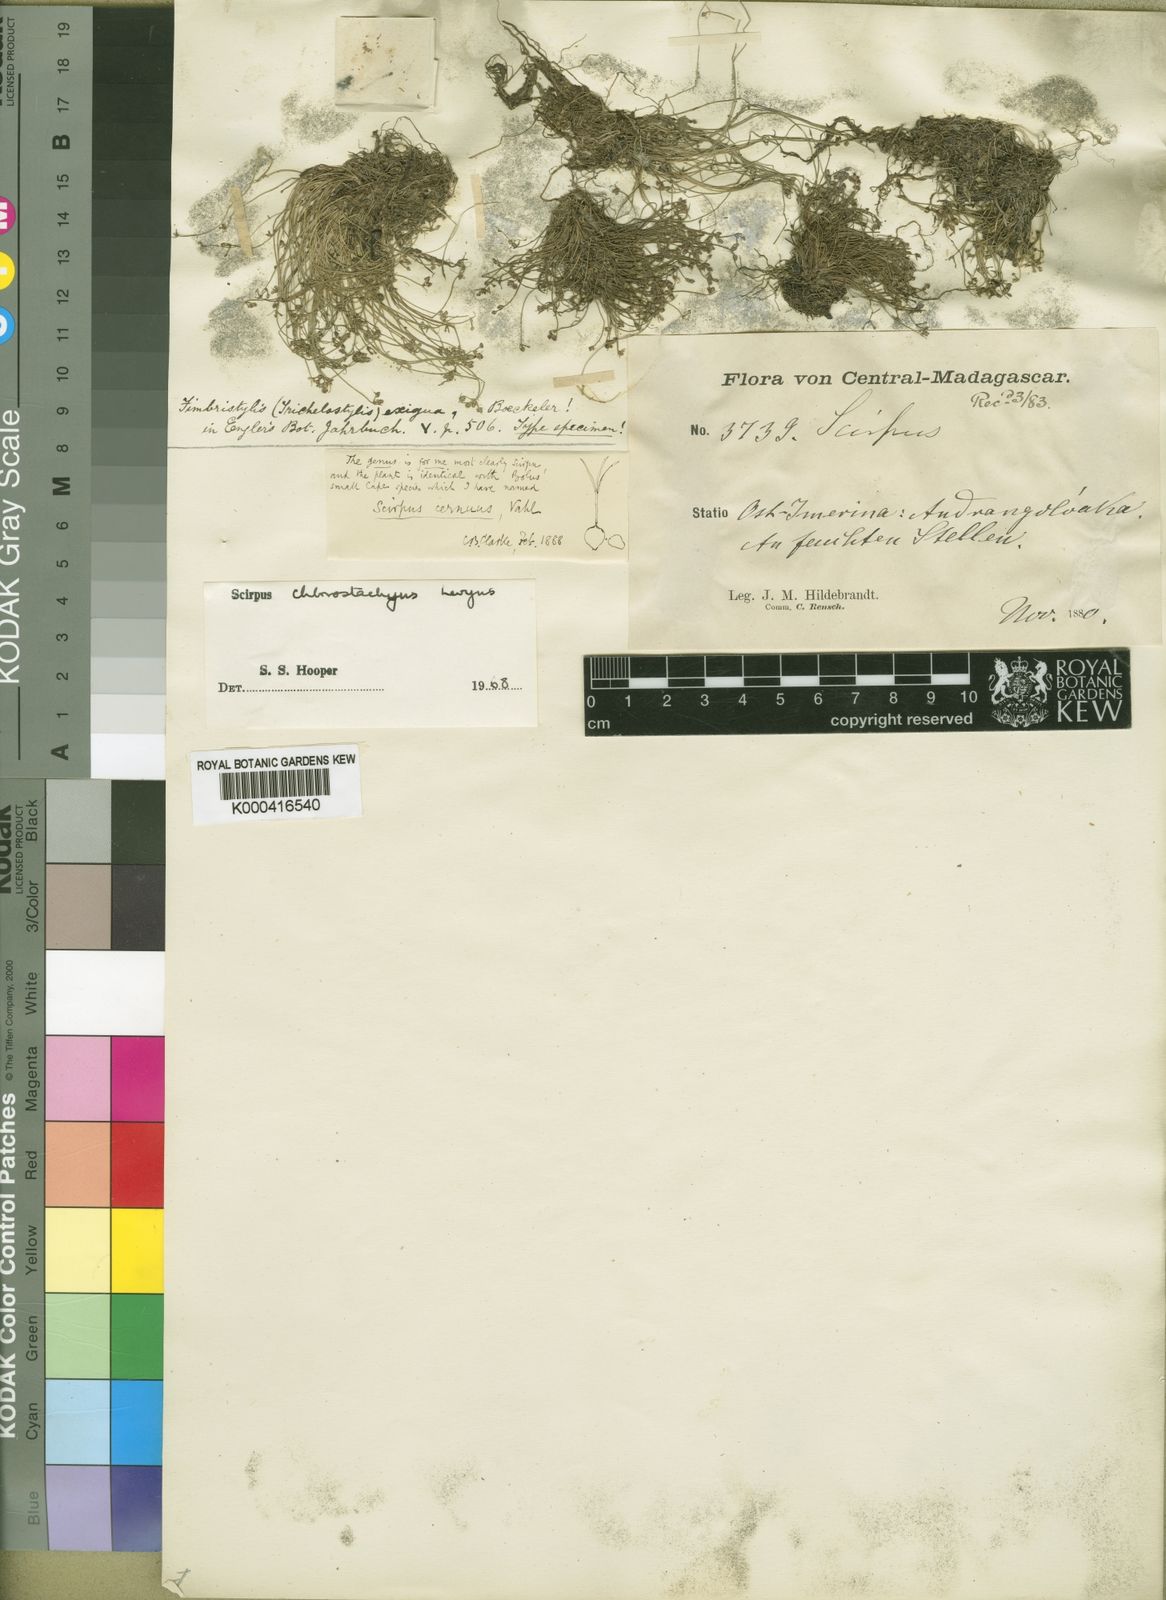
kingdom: Plantae
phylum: Tracheophyta
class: Liliopsida
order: Poales
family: Cyperaceae
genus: Isolepis
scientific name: Isolepis sepulcralis
